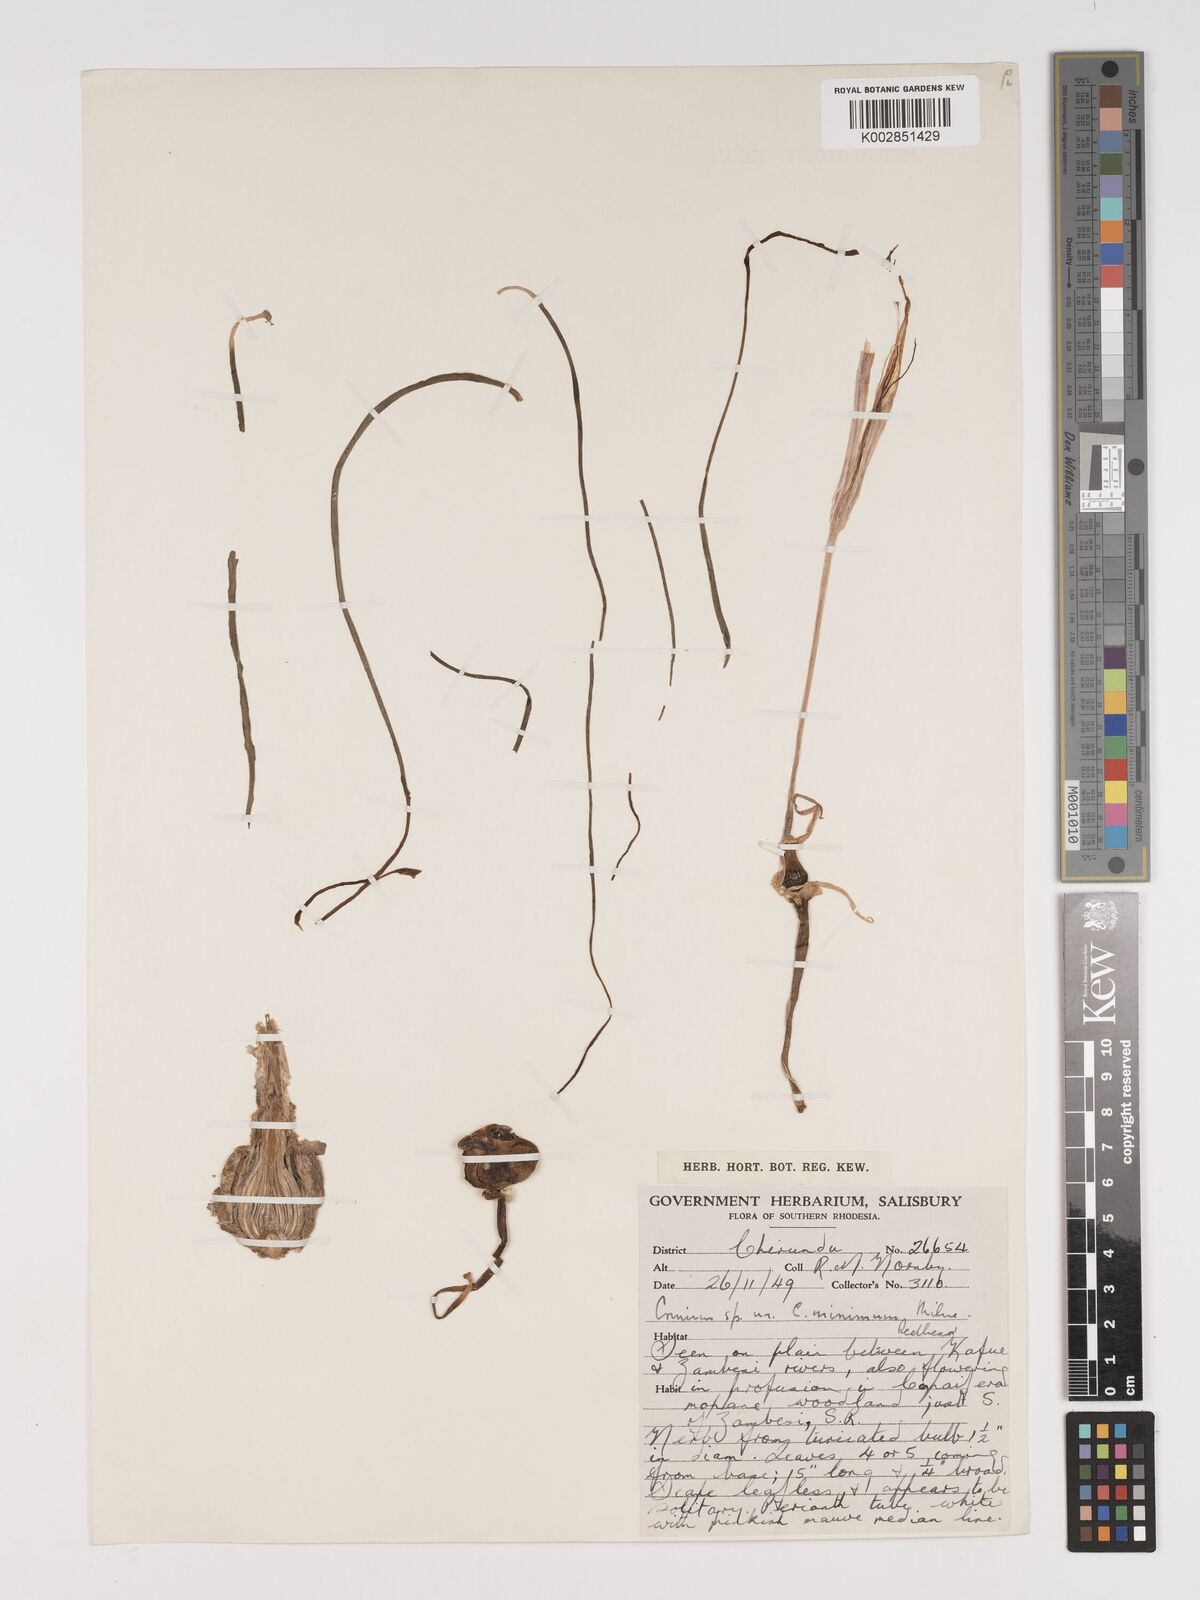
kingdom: Plantae
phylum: Tracheophyta
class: Liliopsida
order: Asparagales
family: Amaryllidaceae
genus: Crinum
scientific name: Crinum walteri
